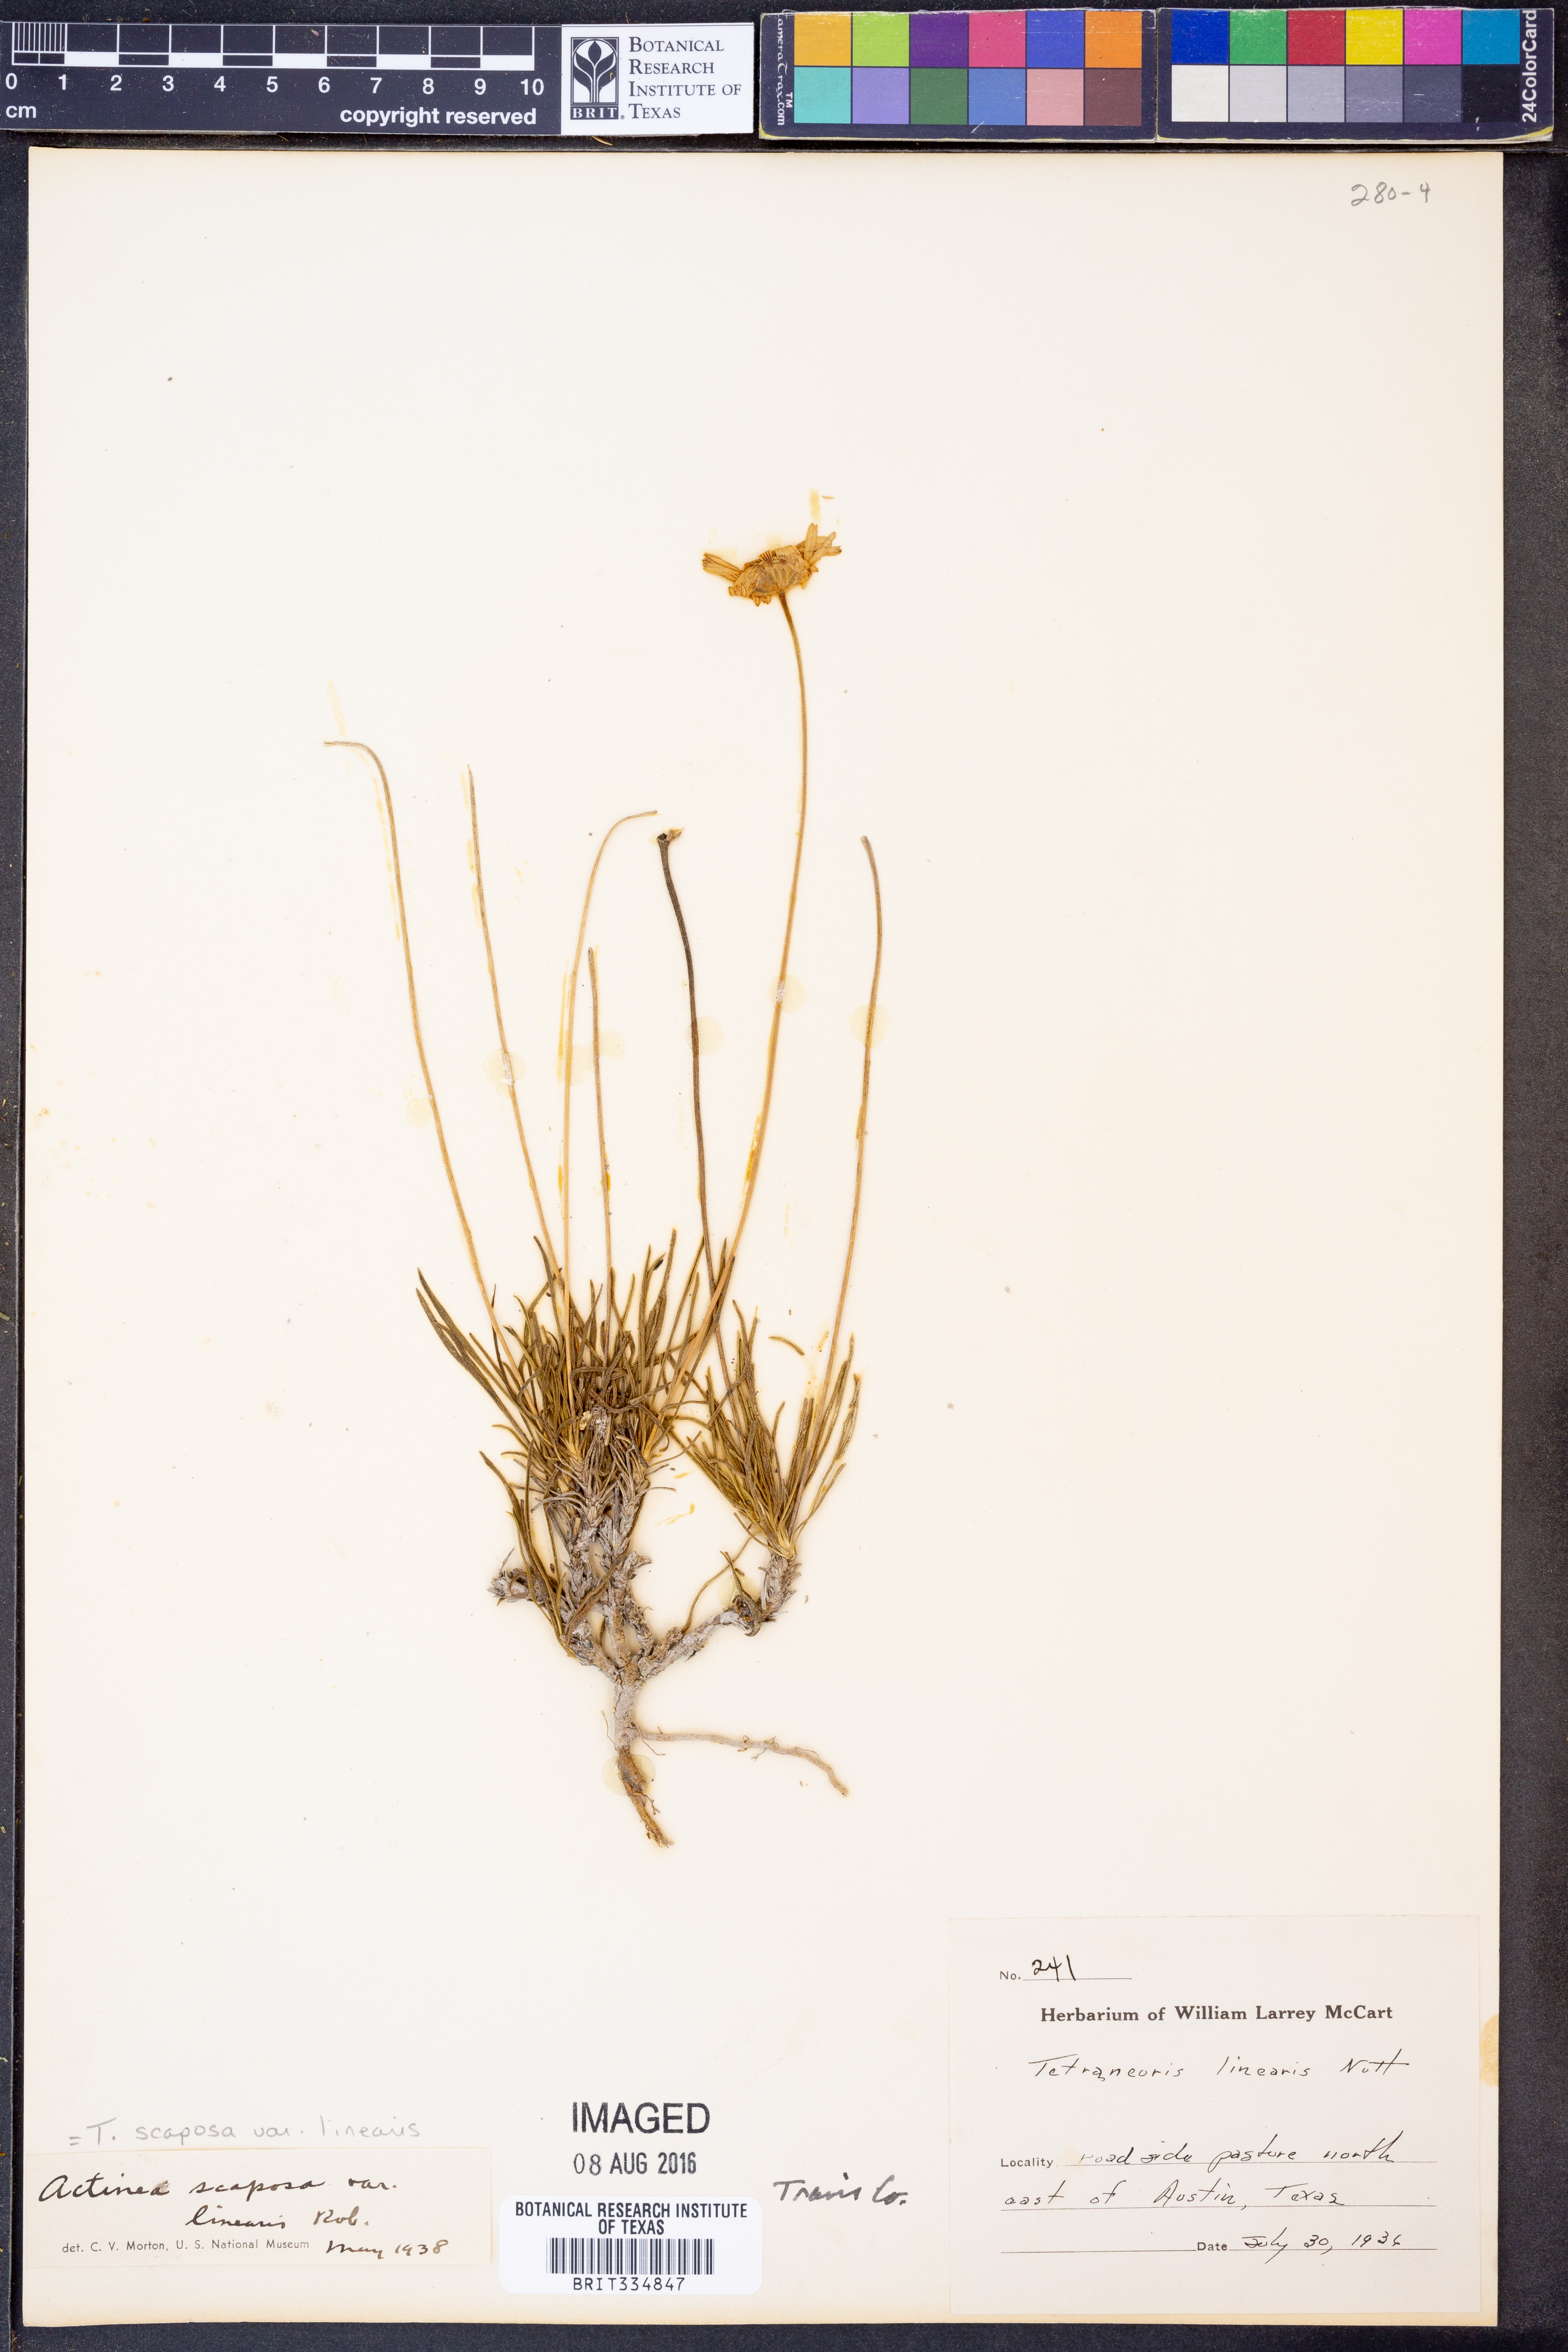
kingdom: Plantae
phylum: Tracheophyta
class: Magnoliopsida
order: Asterales
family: Asteraceae
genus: Tetraneuris
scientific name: Tetraneuris scaposa
